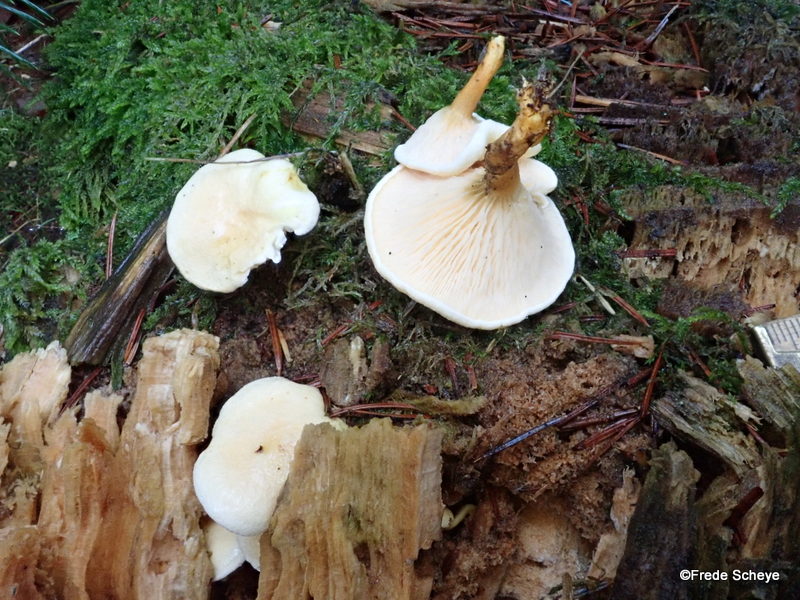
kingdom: Fungi
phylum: Basidiomycota
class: Agaricomycetes
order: Boletales
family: Hygrophoropsidaceae
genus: Hygrophoropsis
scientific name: Hygrophoropsis
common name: orangekantarel
